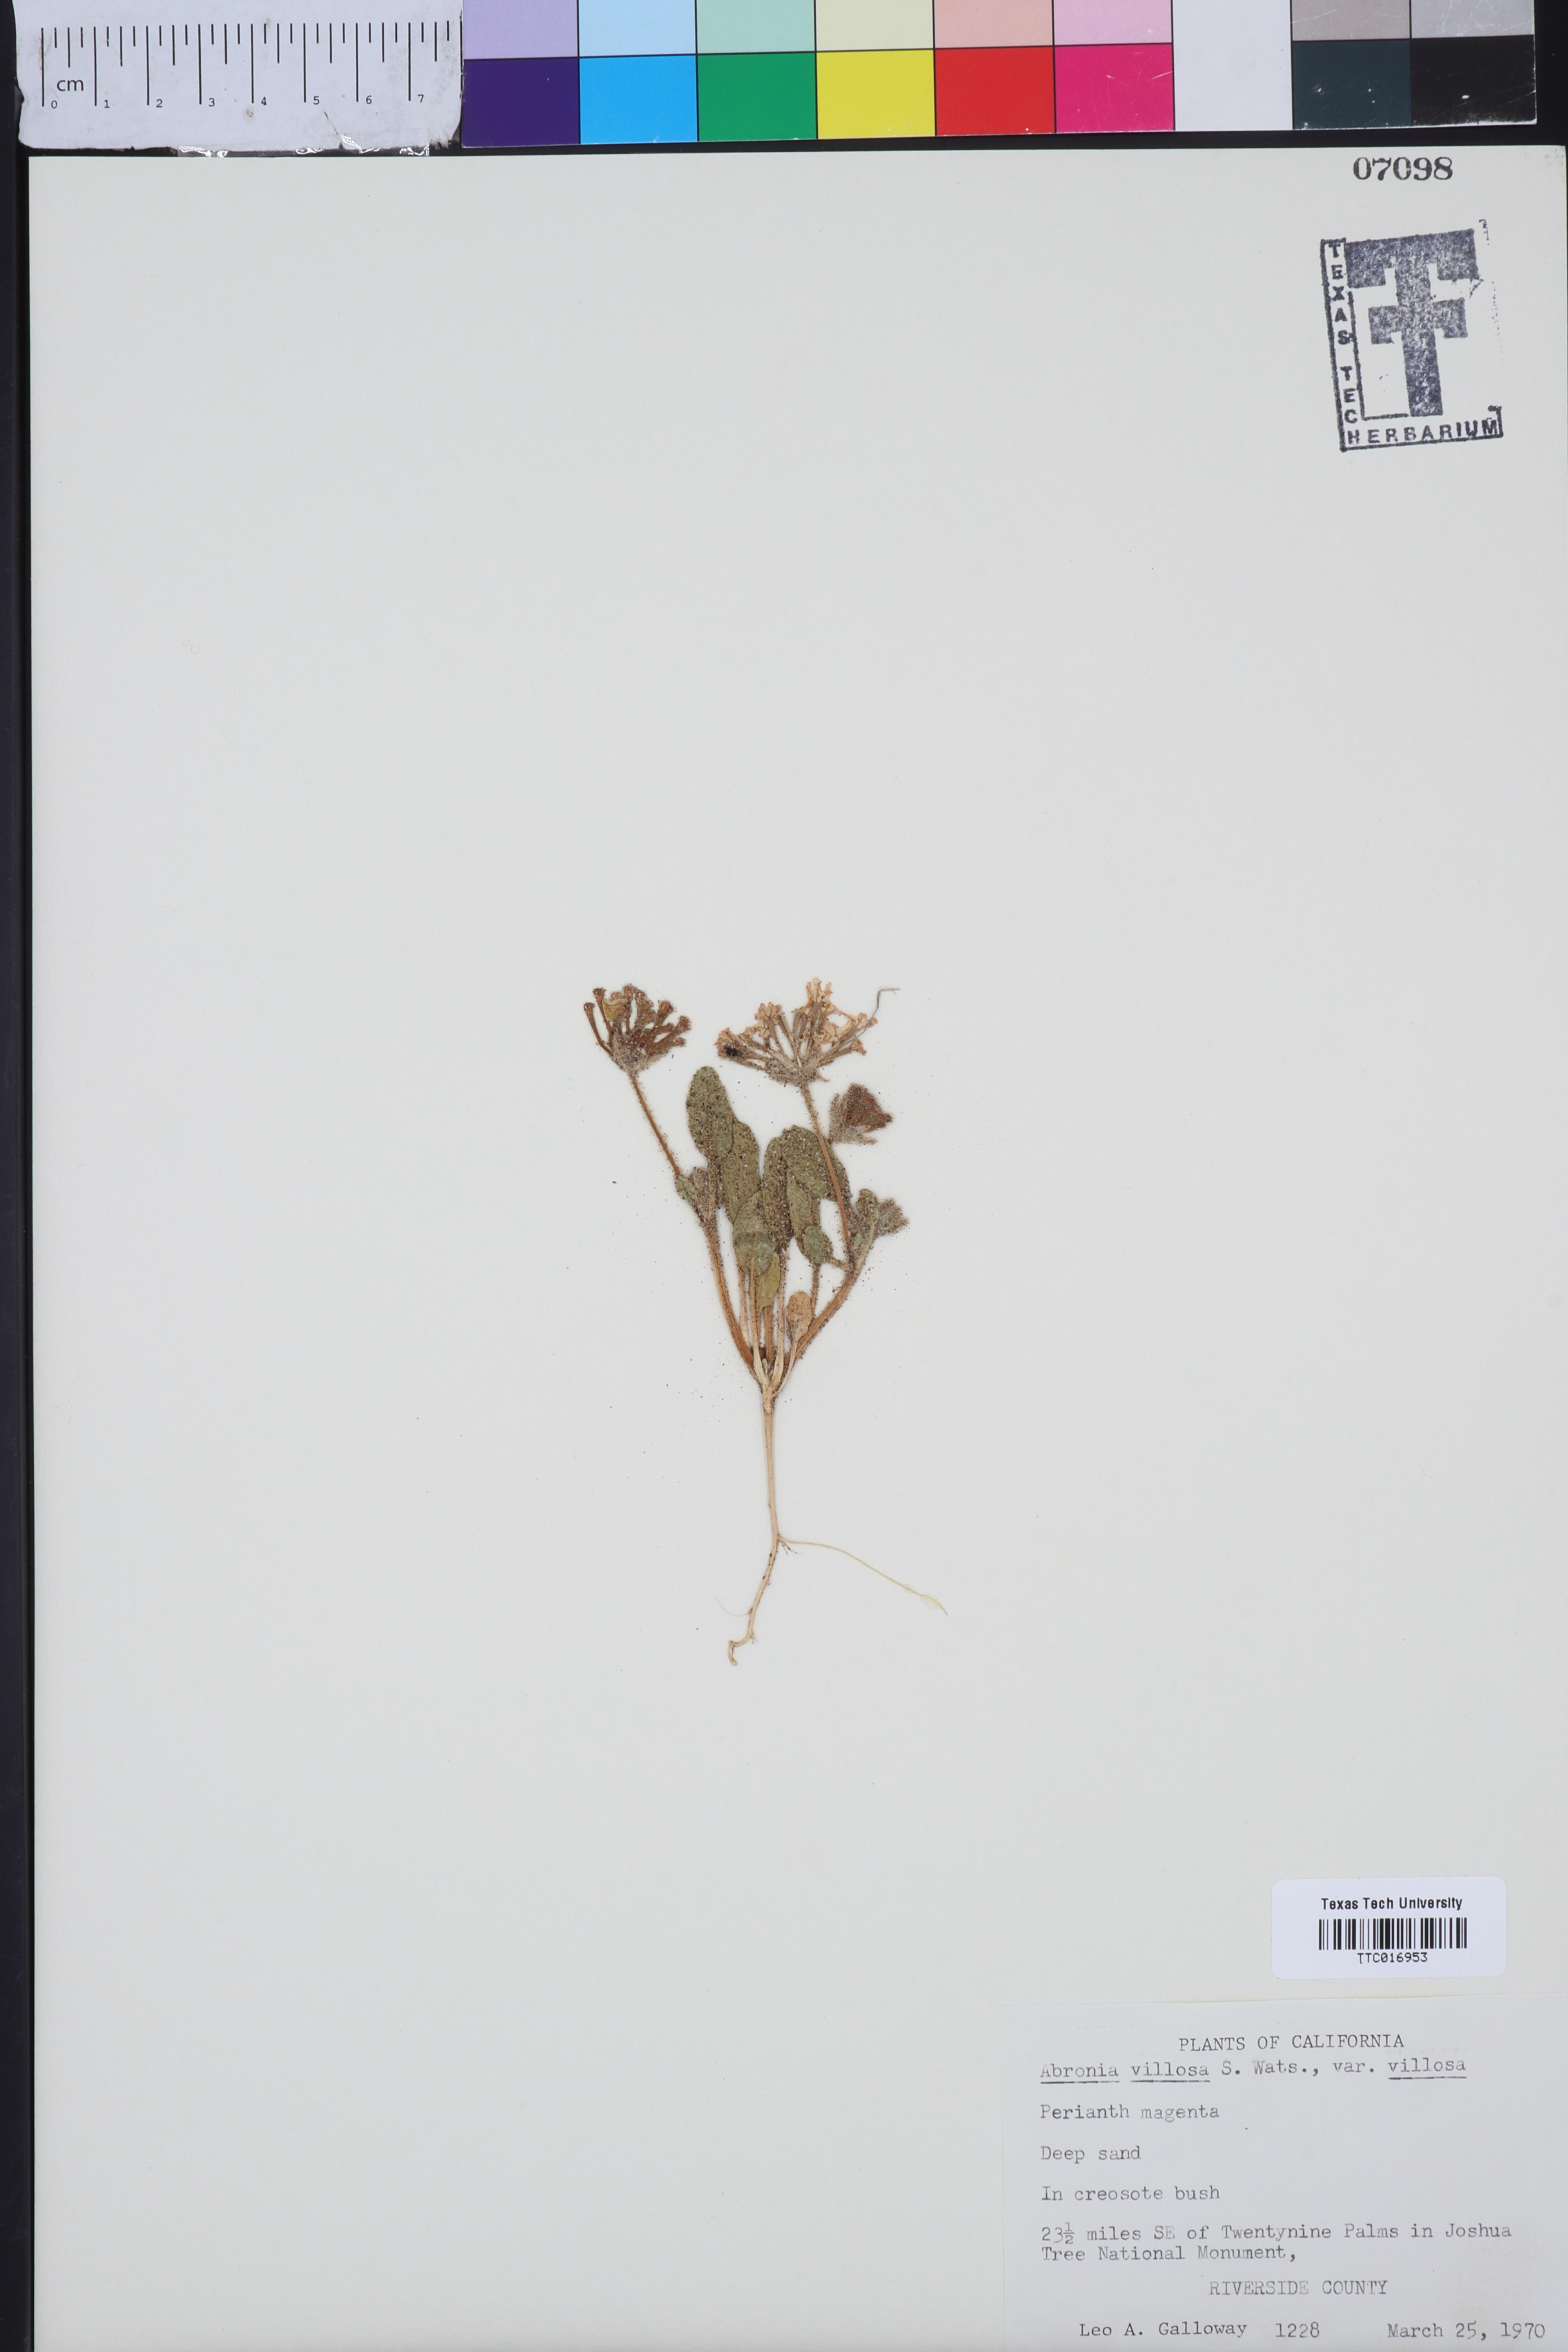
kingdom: Plantae
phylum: Tracheophyta
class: Magnoliopsida
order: Caryophyllales
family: Nyctaginaceae
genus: Abronia
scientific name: Abronia villosa
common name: Desert sand-verbena
